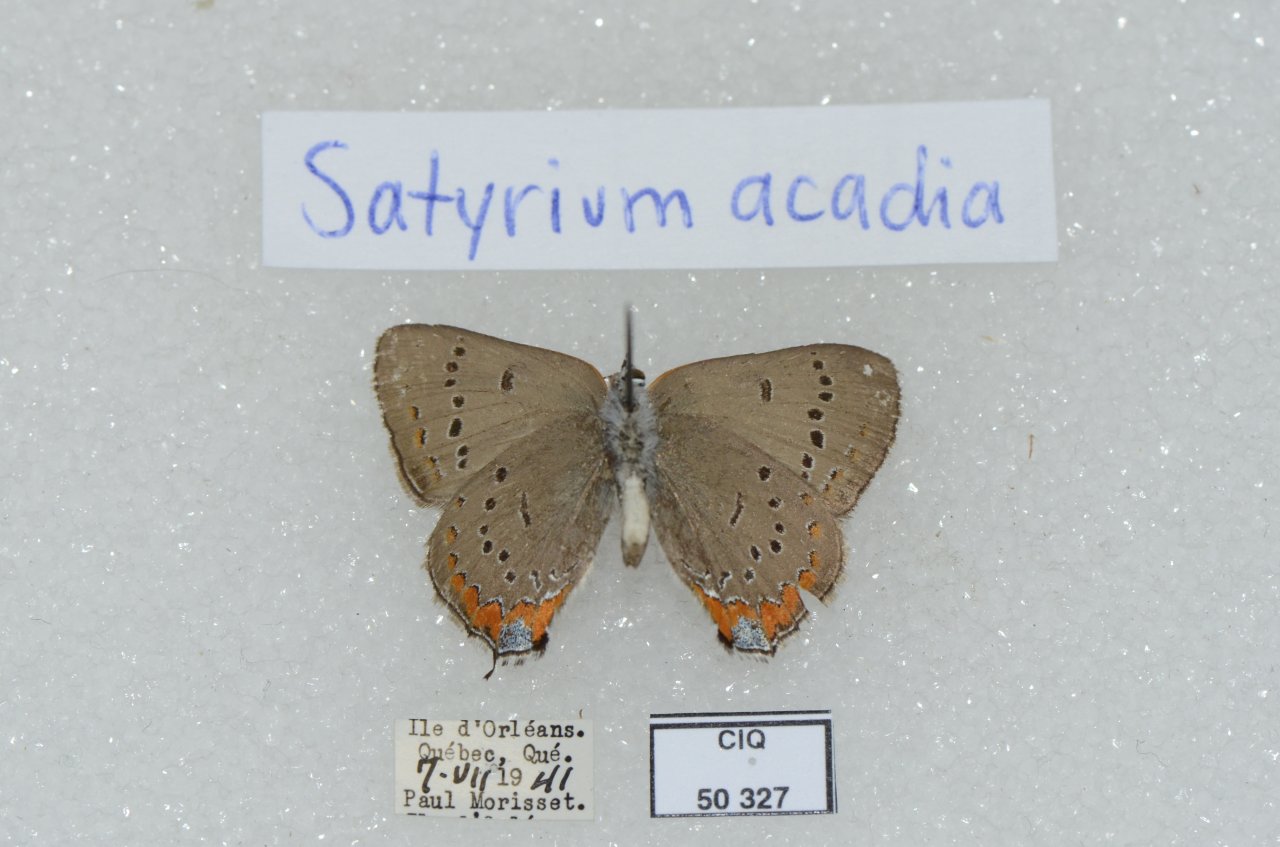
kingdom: Animalia
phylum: Arthropoda
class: Insecta
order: Lepidoptera
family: Lycaenidae
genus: Strymon
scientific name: Strymon acadica
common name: Acadian Hairstreak
